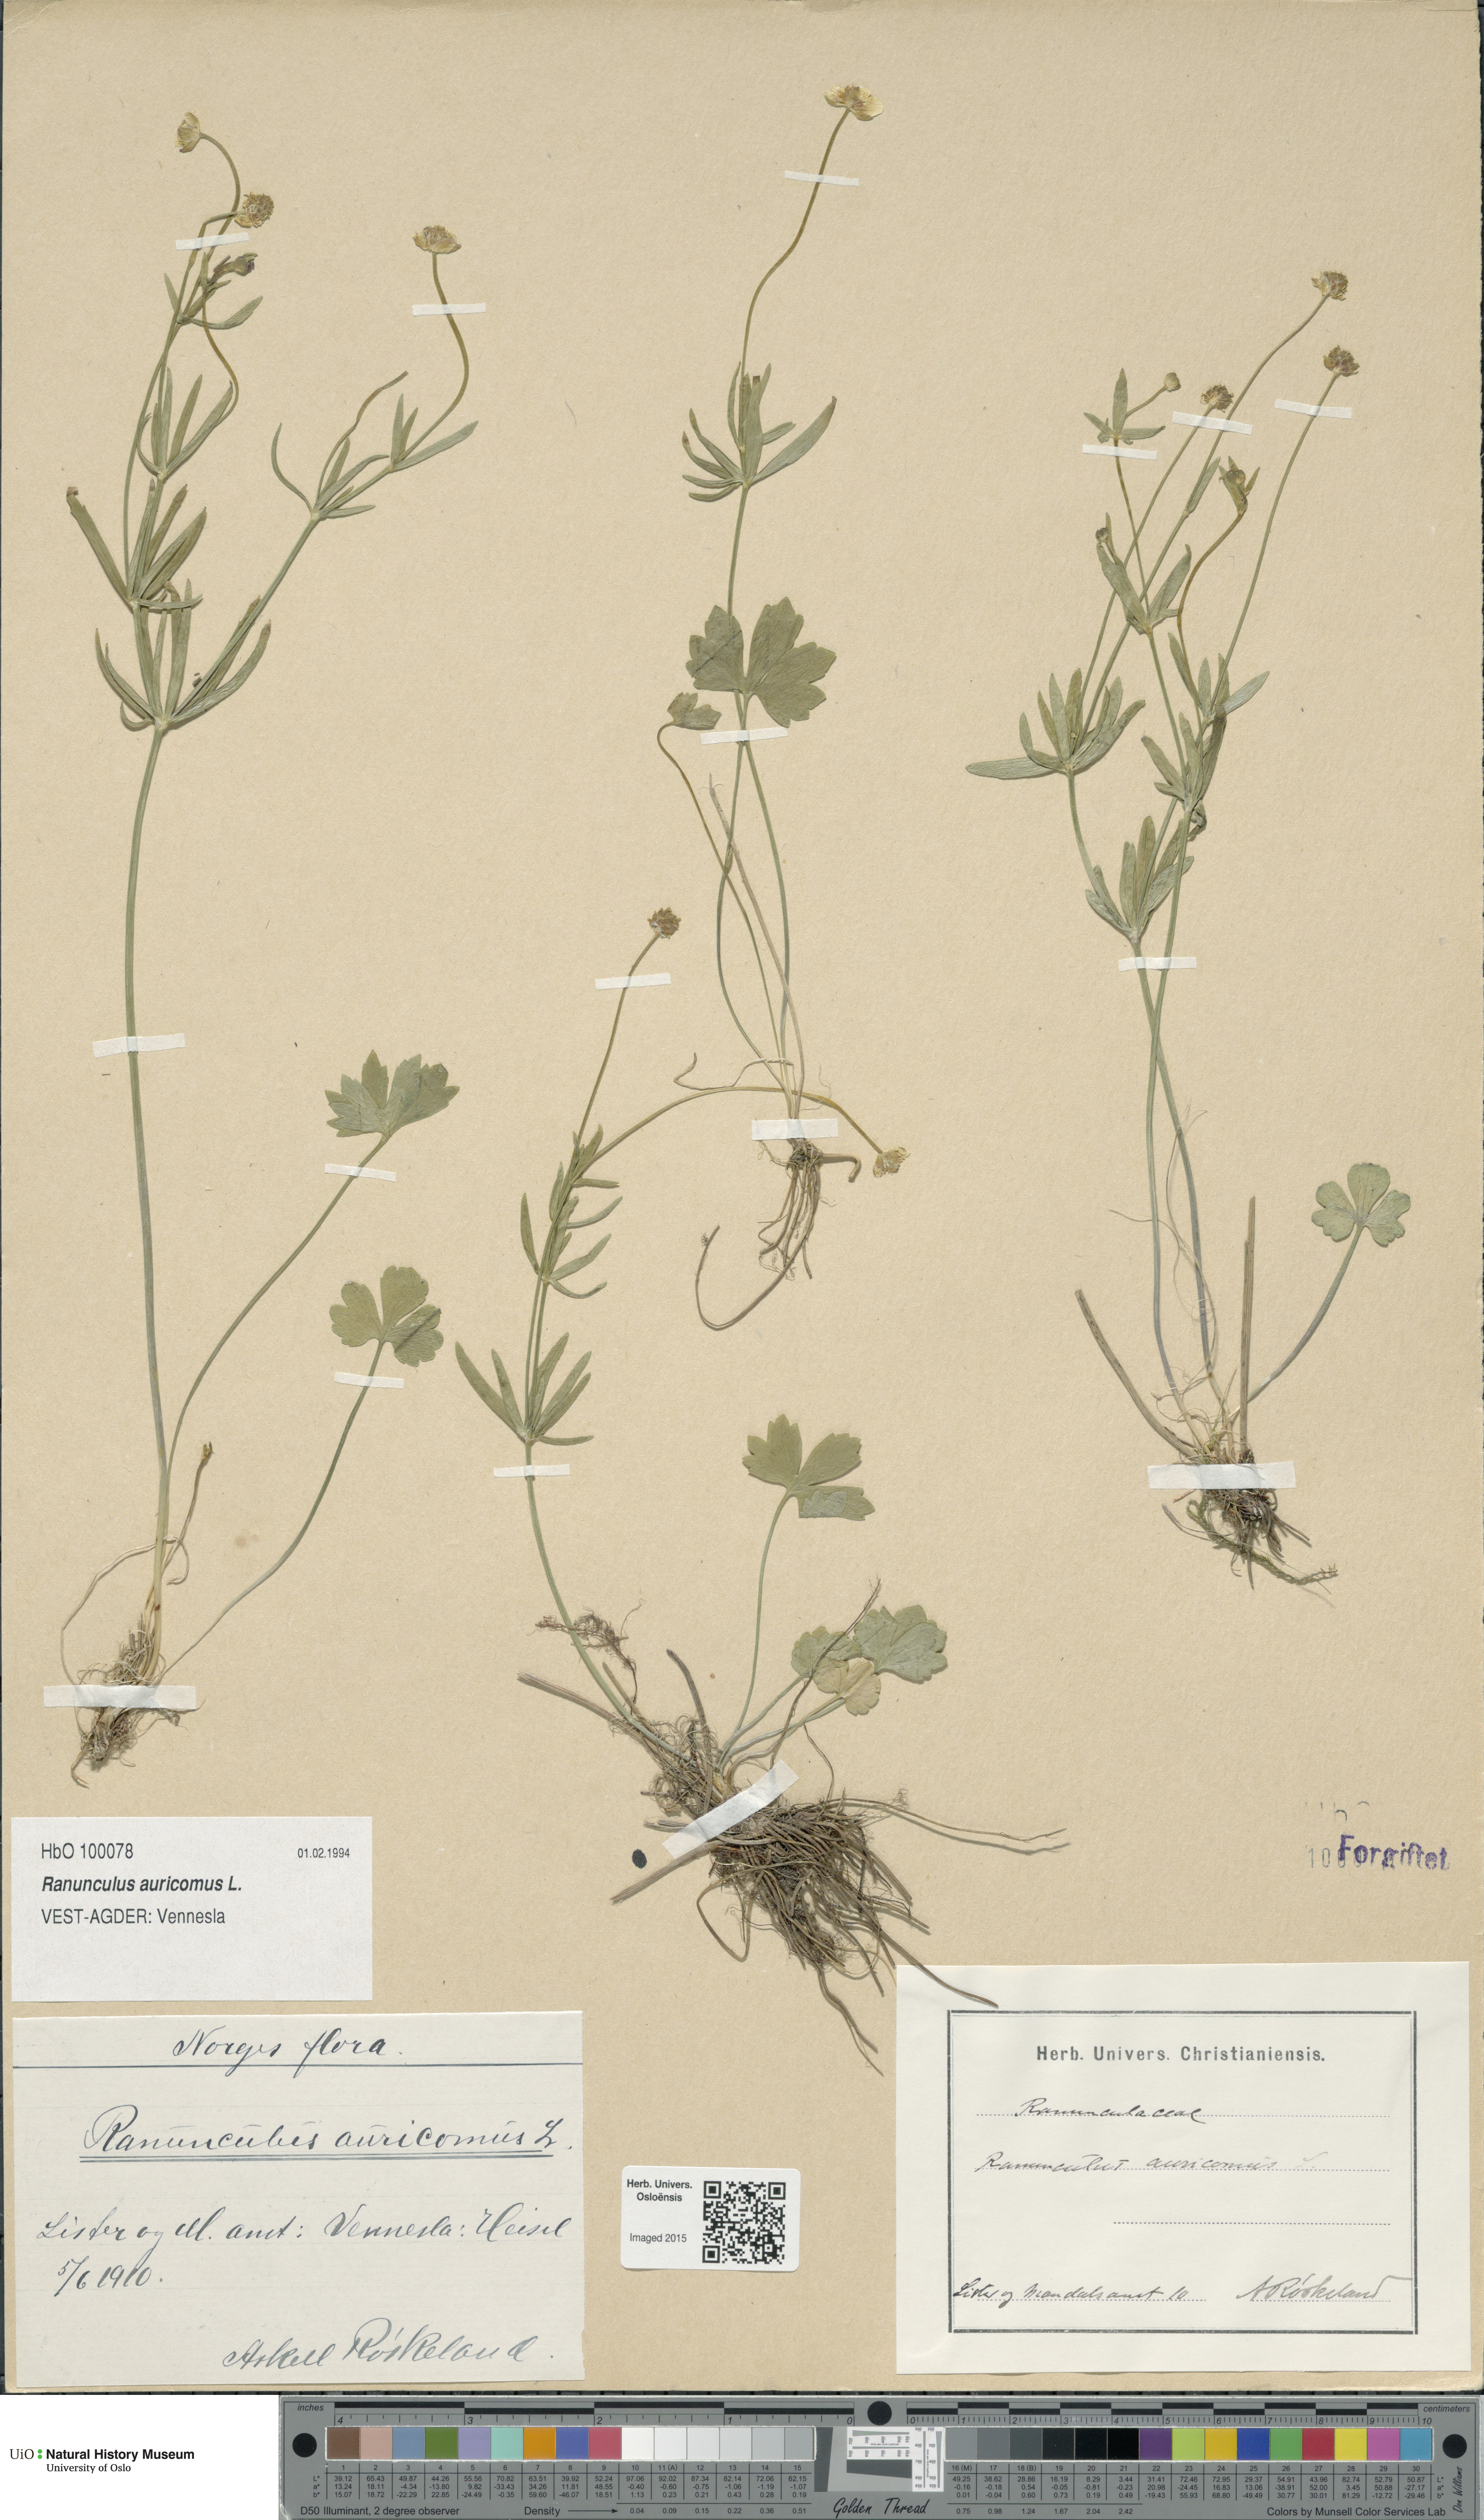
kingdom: Plantae
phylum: Tracheophyta
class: Magnoliopsida
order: Ranunculales
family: Ranunculaceae
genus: Ranunculus
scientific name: Ranunculus auricomus
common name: Goldilocks buttercup
